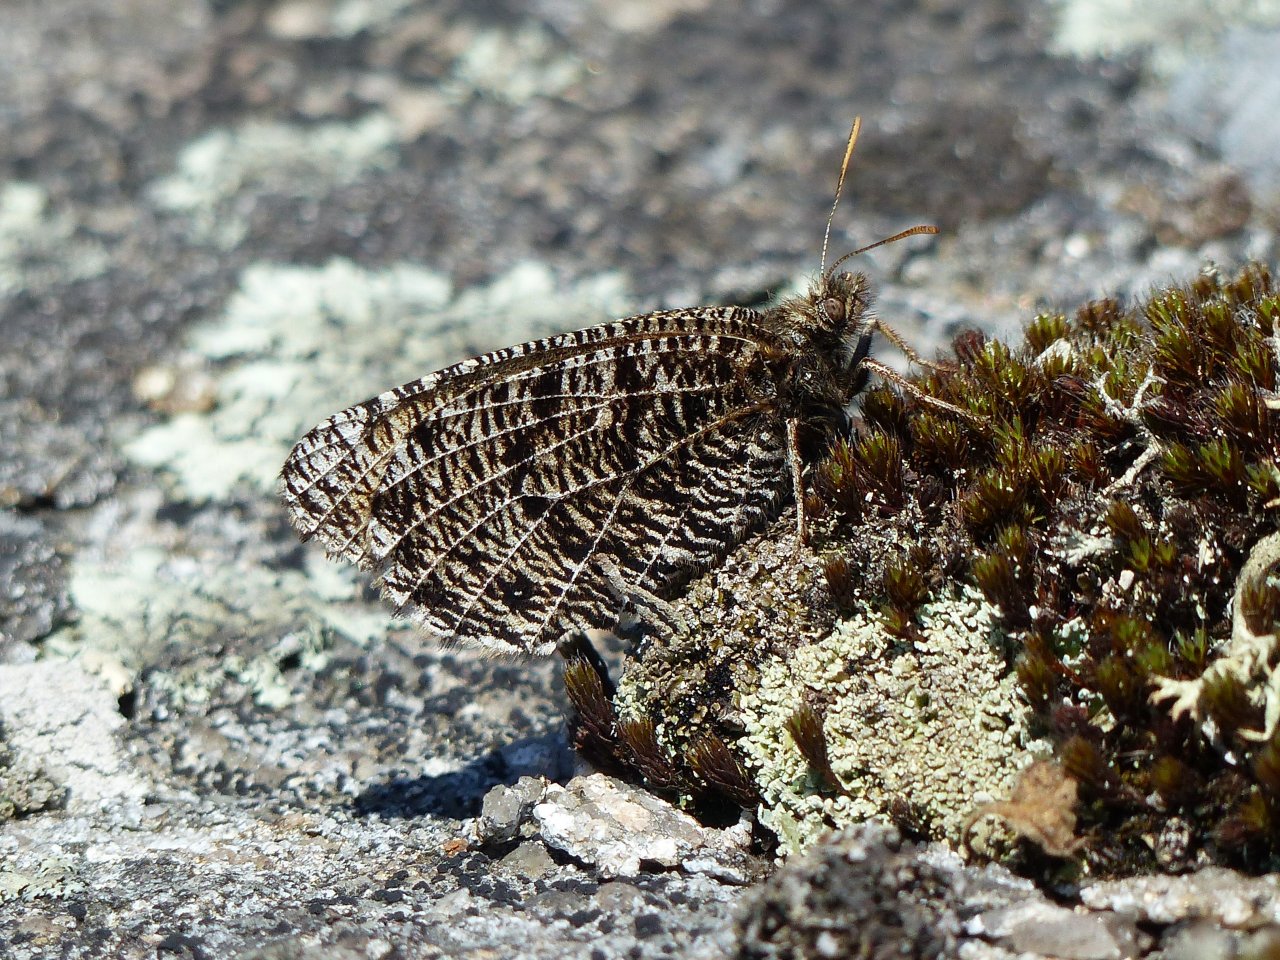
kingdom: Animalia
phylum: Arthropoda
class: Insecta
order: Lepidoptera
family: Nymphalidae
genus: Oeneis
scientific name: Oeneis chryxus
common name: Chryxus Arctic
